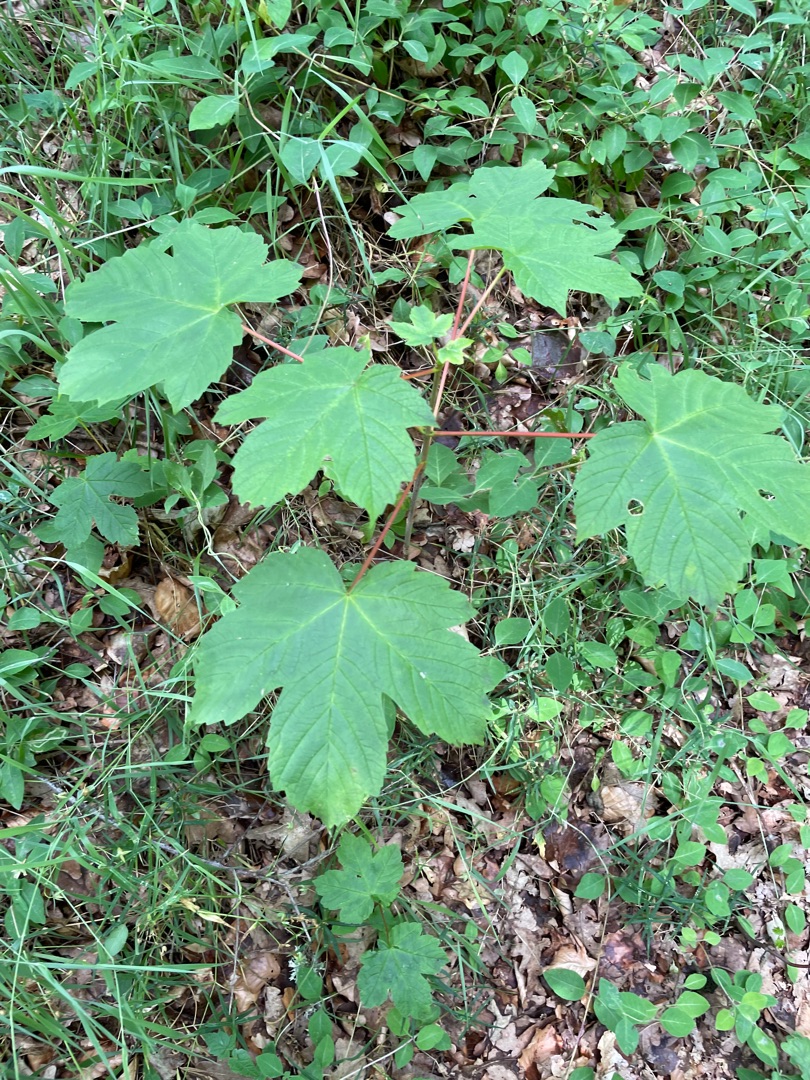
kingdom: Plantae
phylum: Tracheophyta
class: Magnoliopsida
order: Sapindales
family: Sapindaceae
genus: Acer
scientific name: Acer pseudoplatanus
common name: Ahorn
